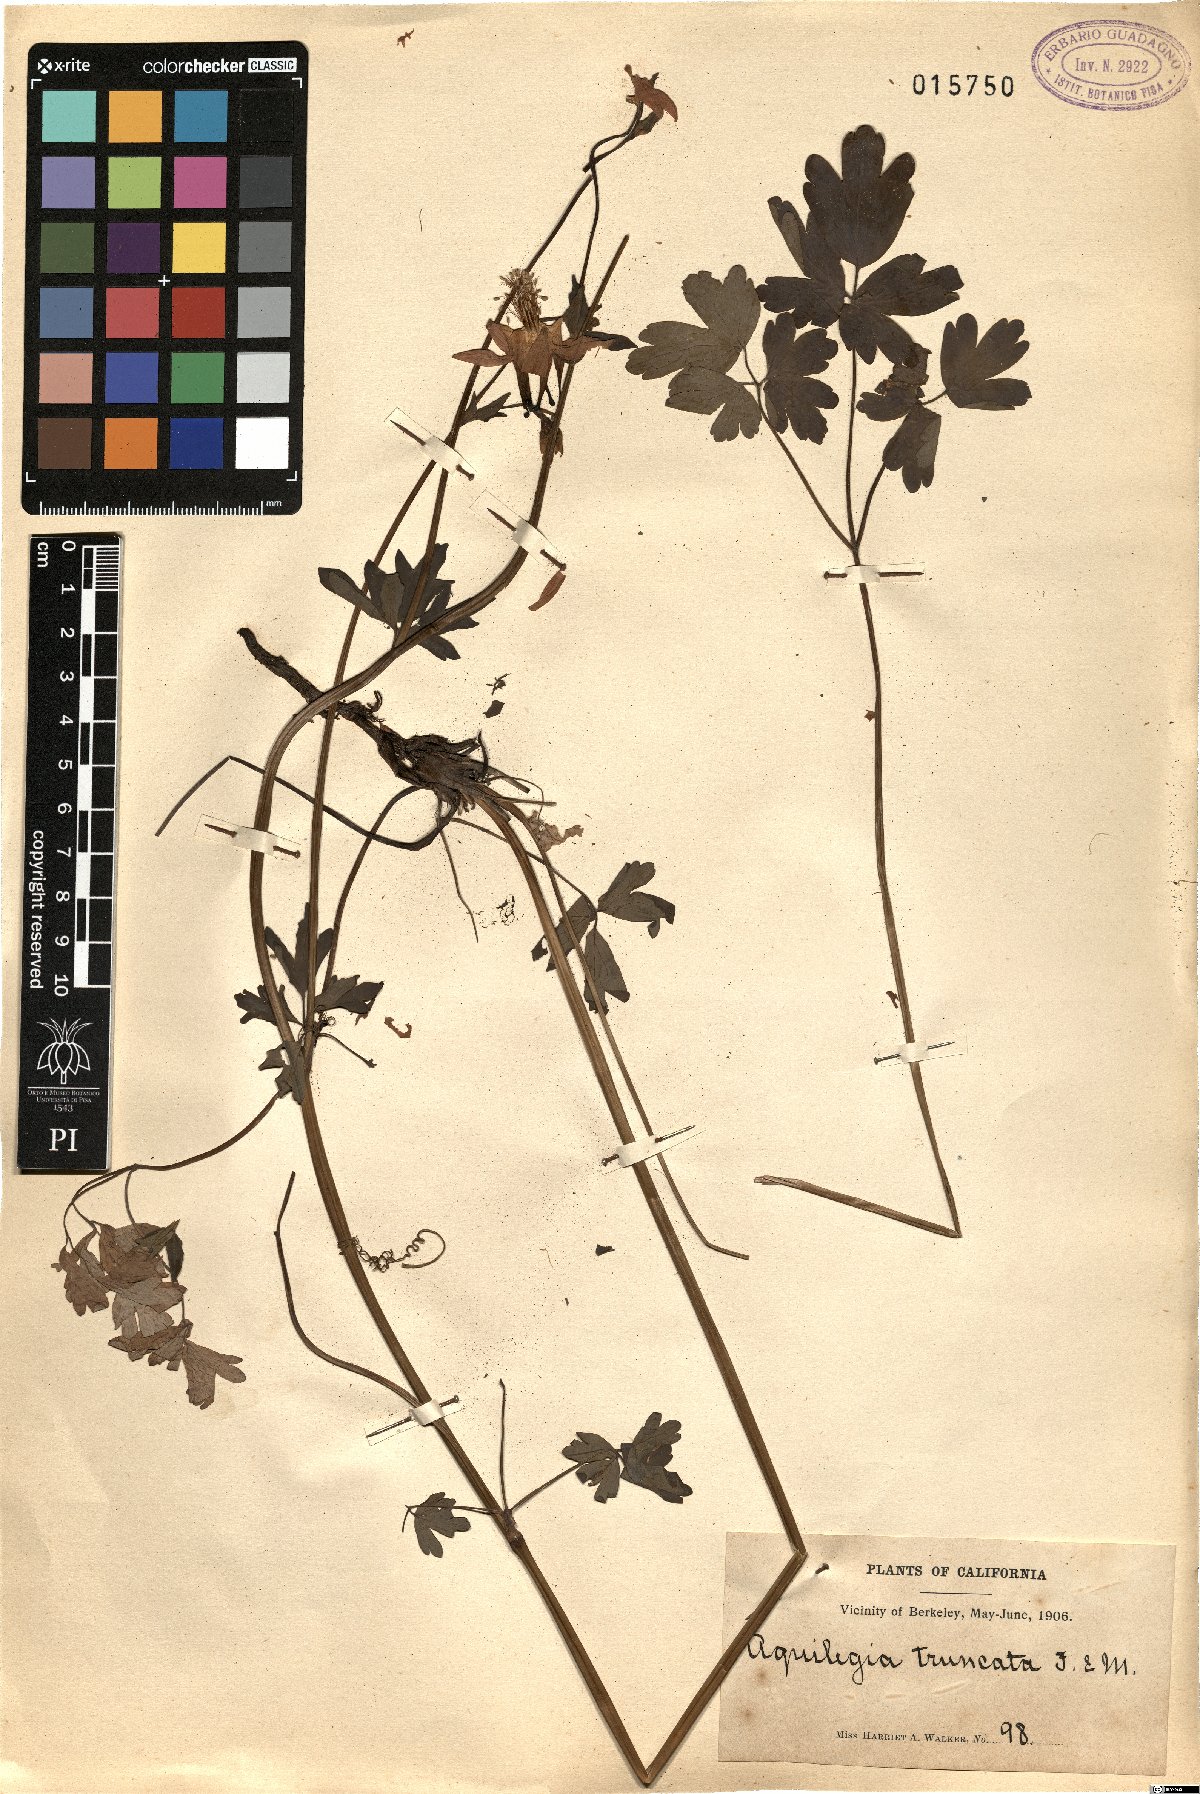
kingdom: Plantae
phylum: Tracheophyta
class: Magnoliopsida
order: Ranunculales
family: Ranunculaceae
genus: Aquilegia
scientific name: Aquilegia formosa
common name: Sitka columbine
